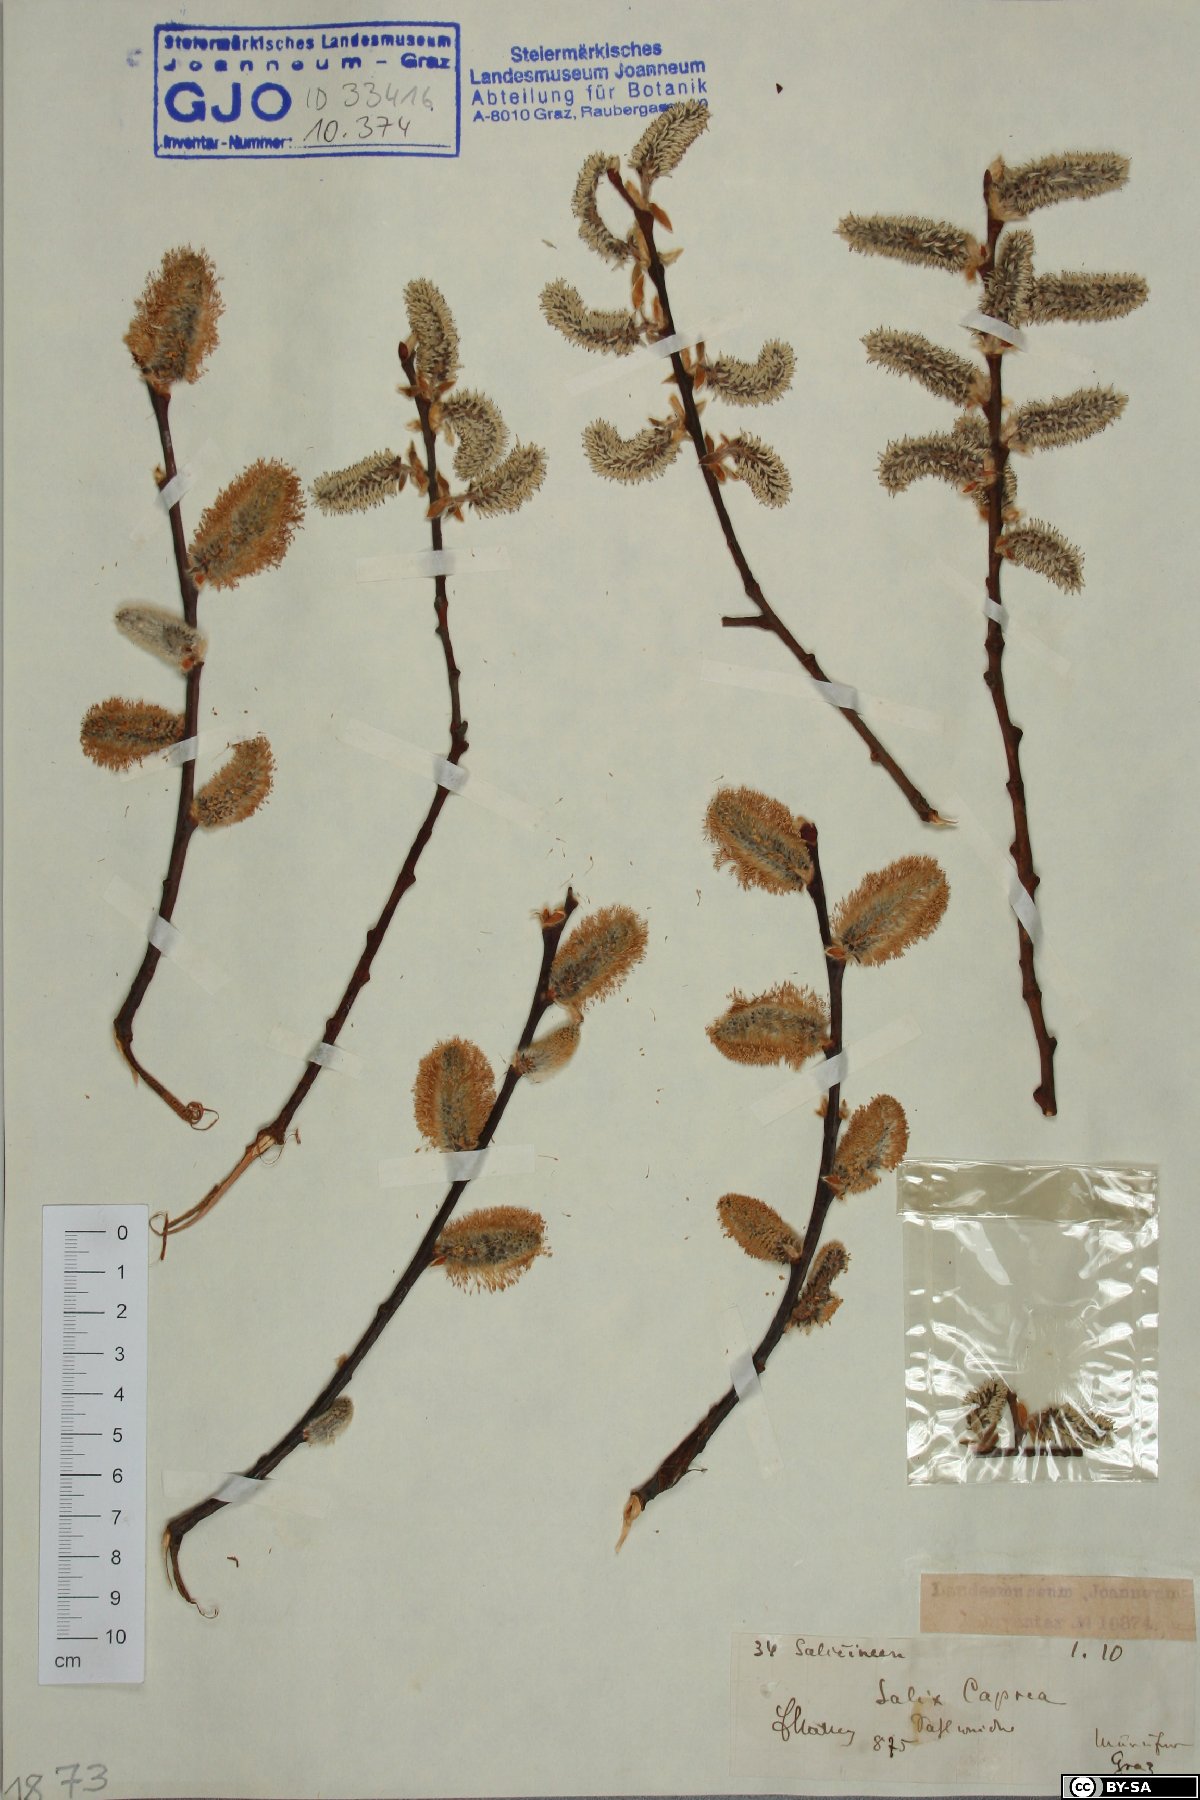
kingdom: Plantae
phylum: Tracheophyta
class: Magnoliopsida
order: Malpighiales
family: Salicaceae
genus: Salix
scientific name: Salix caprea
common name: Goat willow
